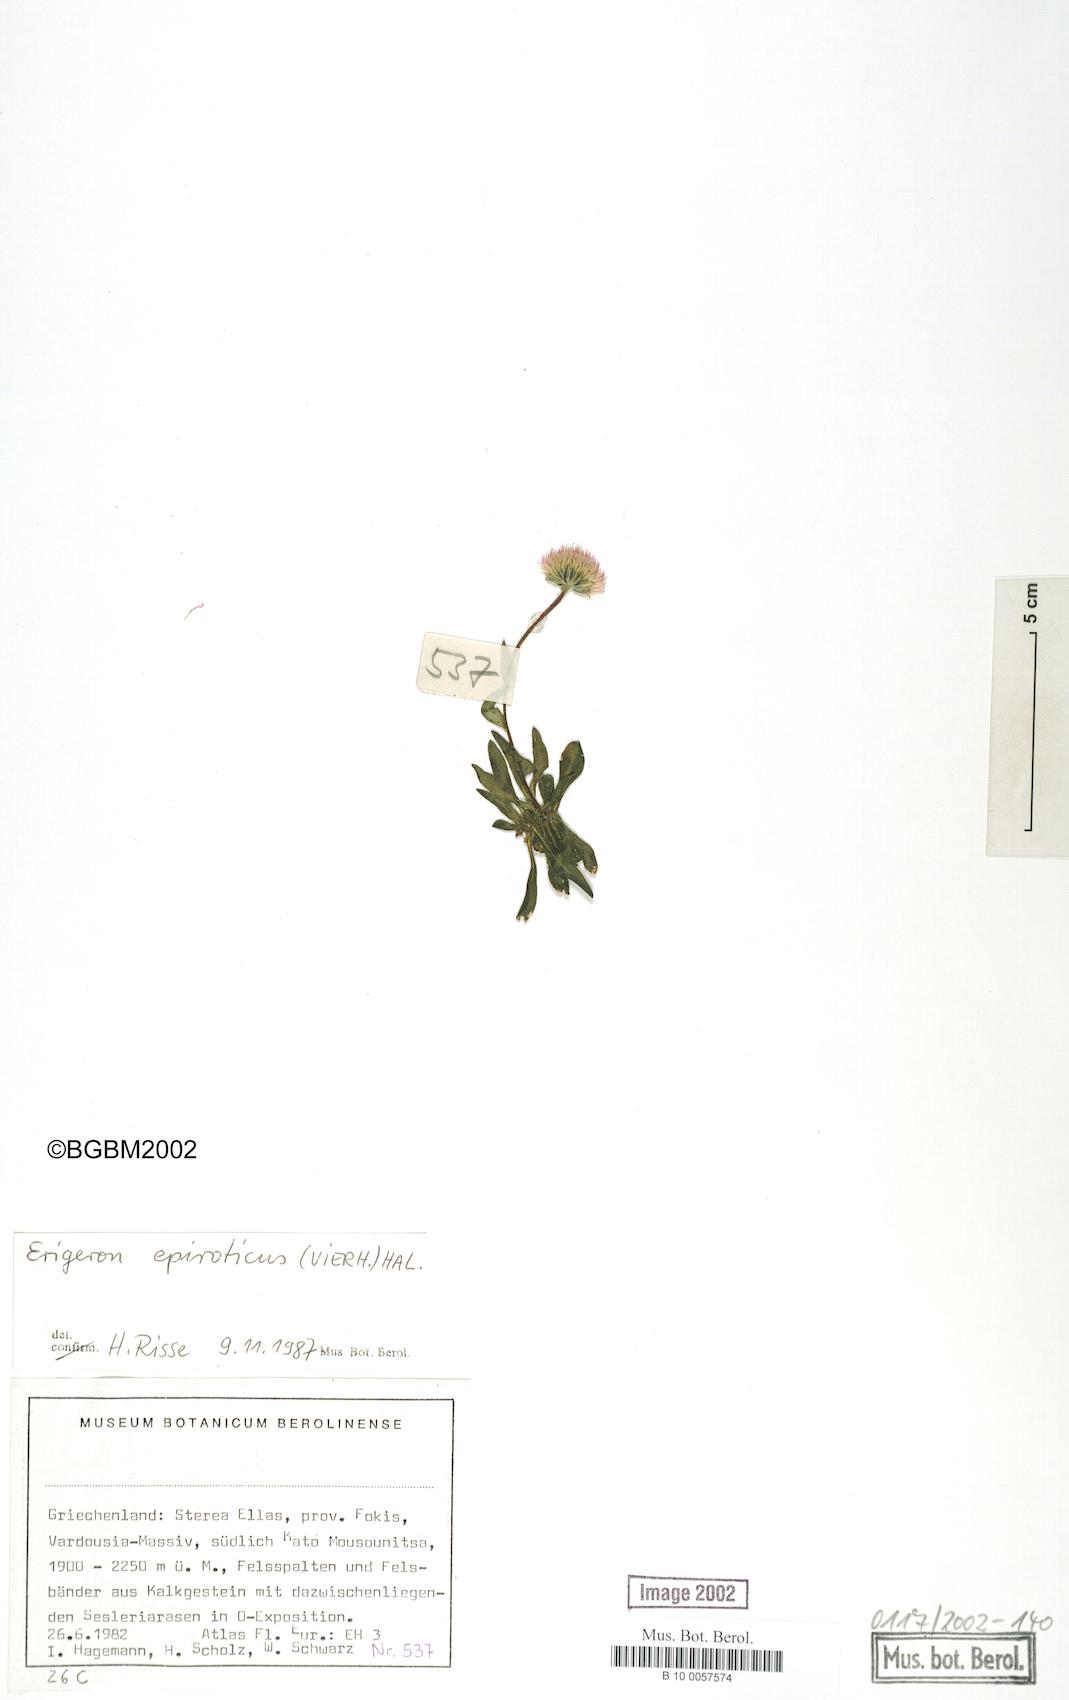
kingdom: Plantae
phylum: Tracheophyta
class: Magnoliopsida
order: Asterales
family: Asteraceae
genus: Erigeron
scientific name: Erigeron epiroticus
